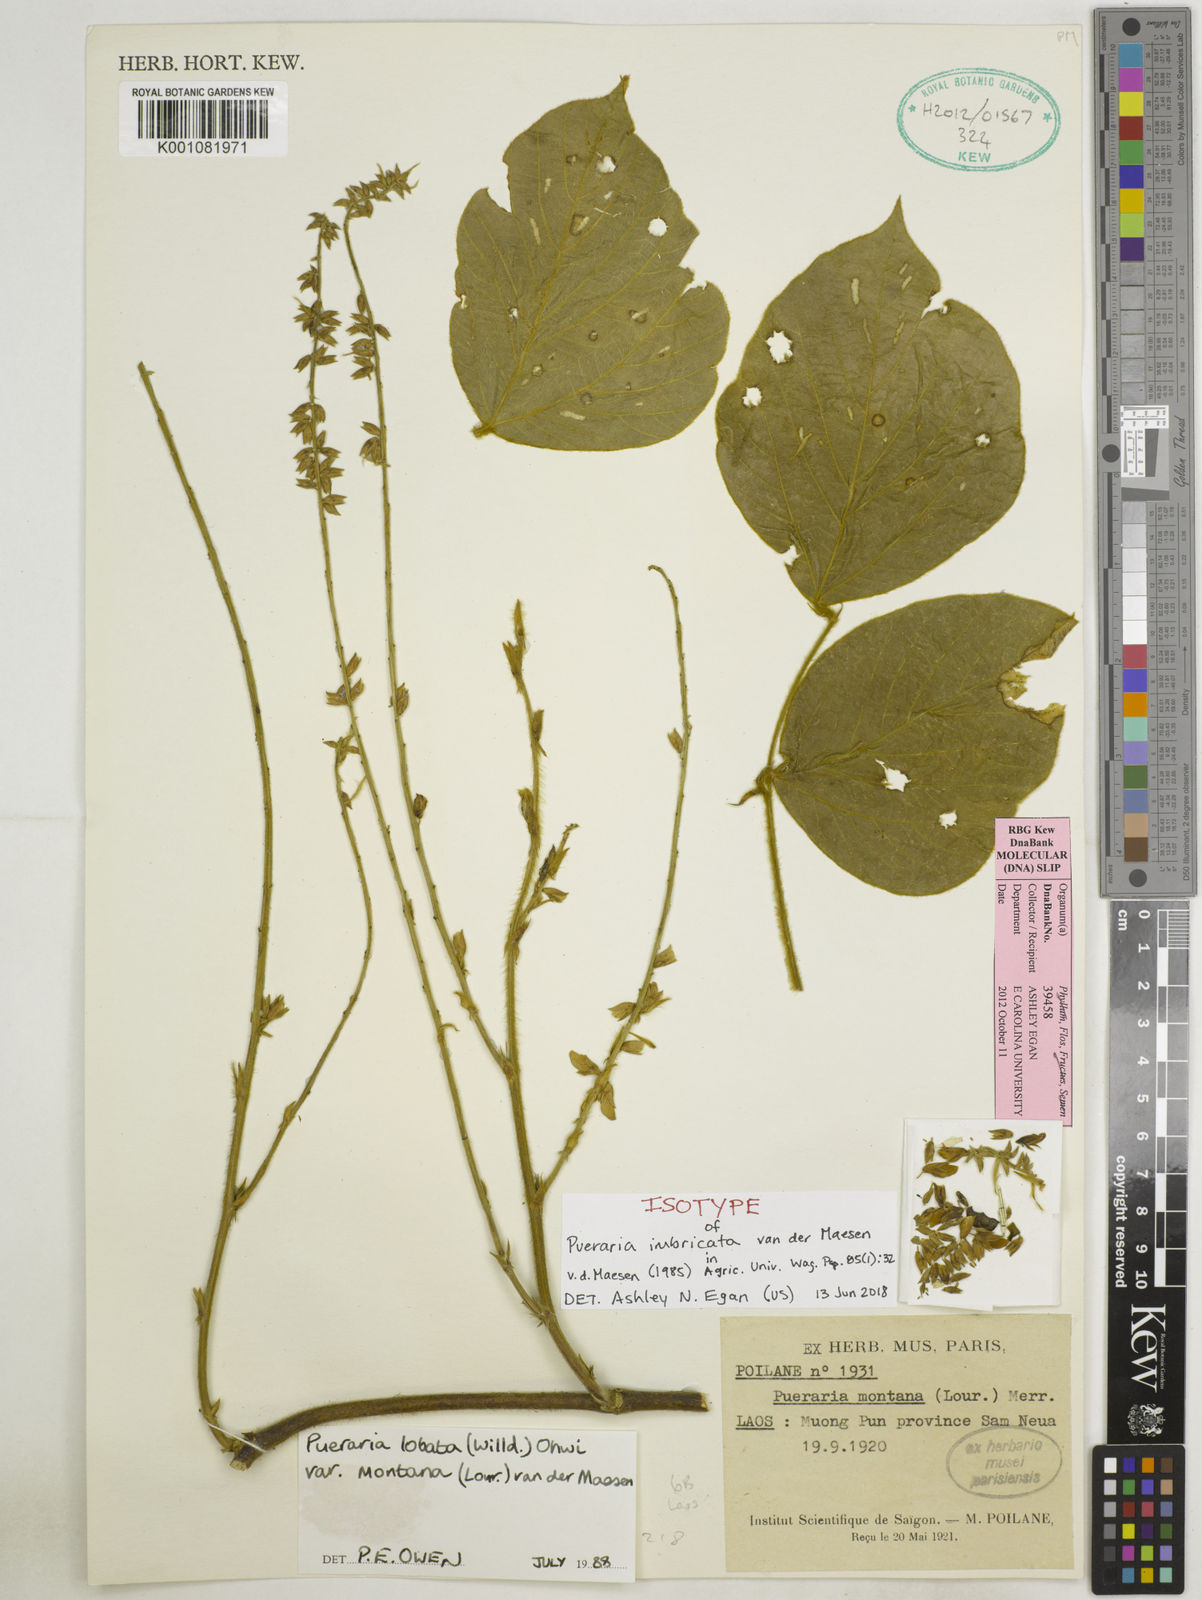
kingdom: Plantae
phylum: Tracheophyta
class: Magnoliopsida
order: Fabales
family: Fabaceae
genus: Pueraria
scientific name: Pueraria imbricata
